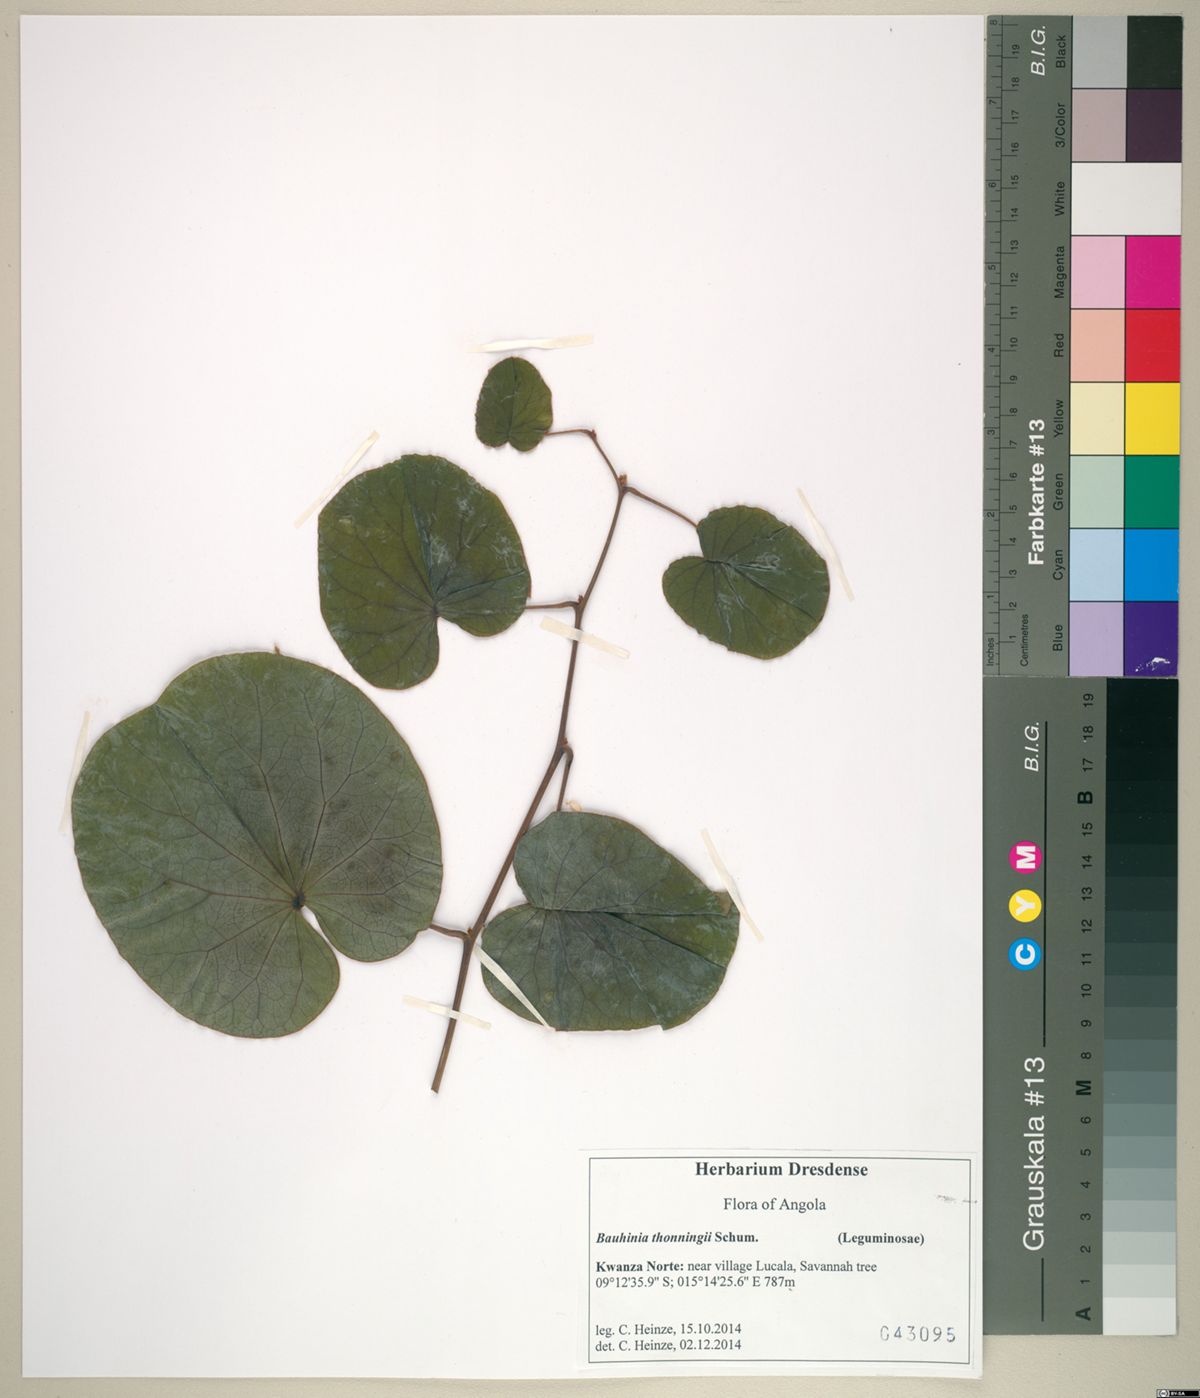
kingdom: Plantae
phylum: Tracheophyta
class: Magnoliopsida
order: Fabales
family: Fabaceae
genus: Piliostigma
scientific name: Piliostigma thonningii
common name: Kao
